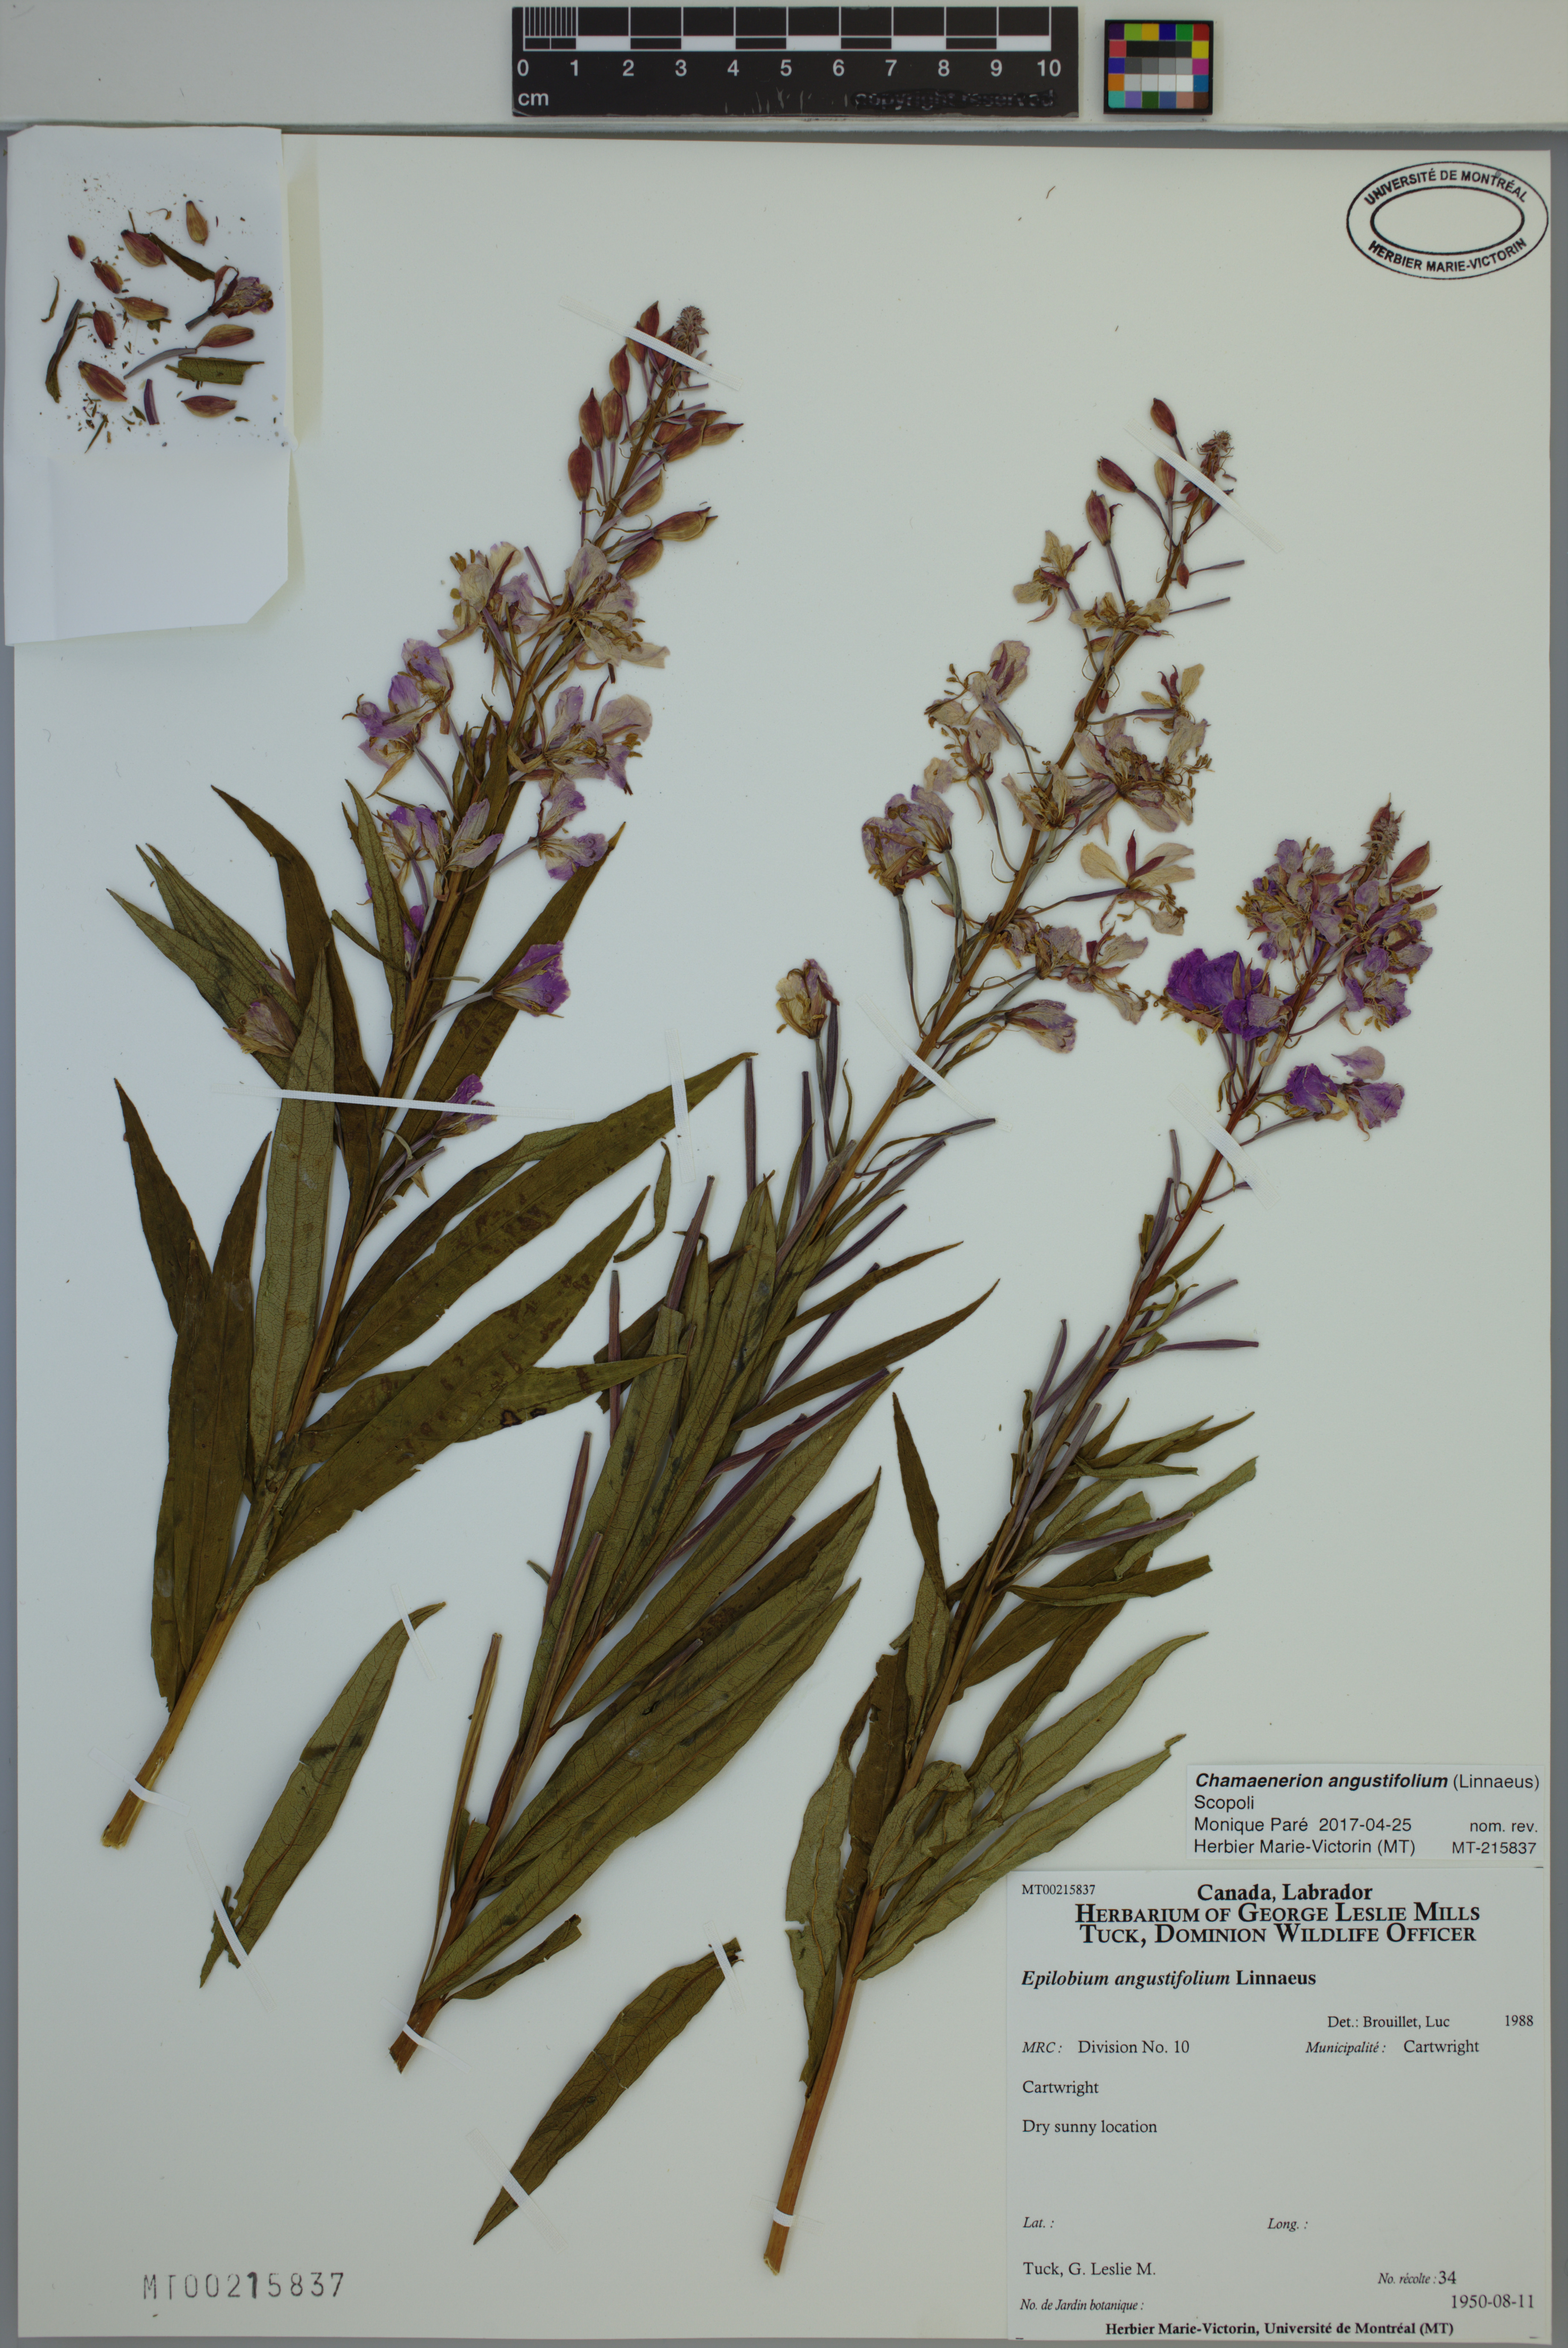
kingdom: Plantae
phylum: Tracheophyta
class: Magnoliopsida
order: Myrtales
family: Onagraceae
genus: Chamaenerion
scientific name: Chamaenerion angustifolium
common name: Fireweed
